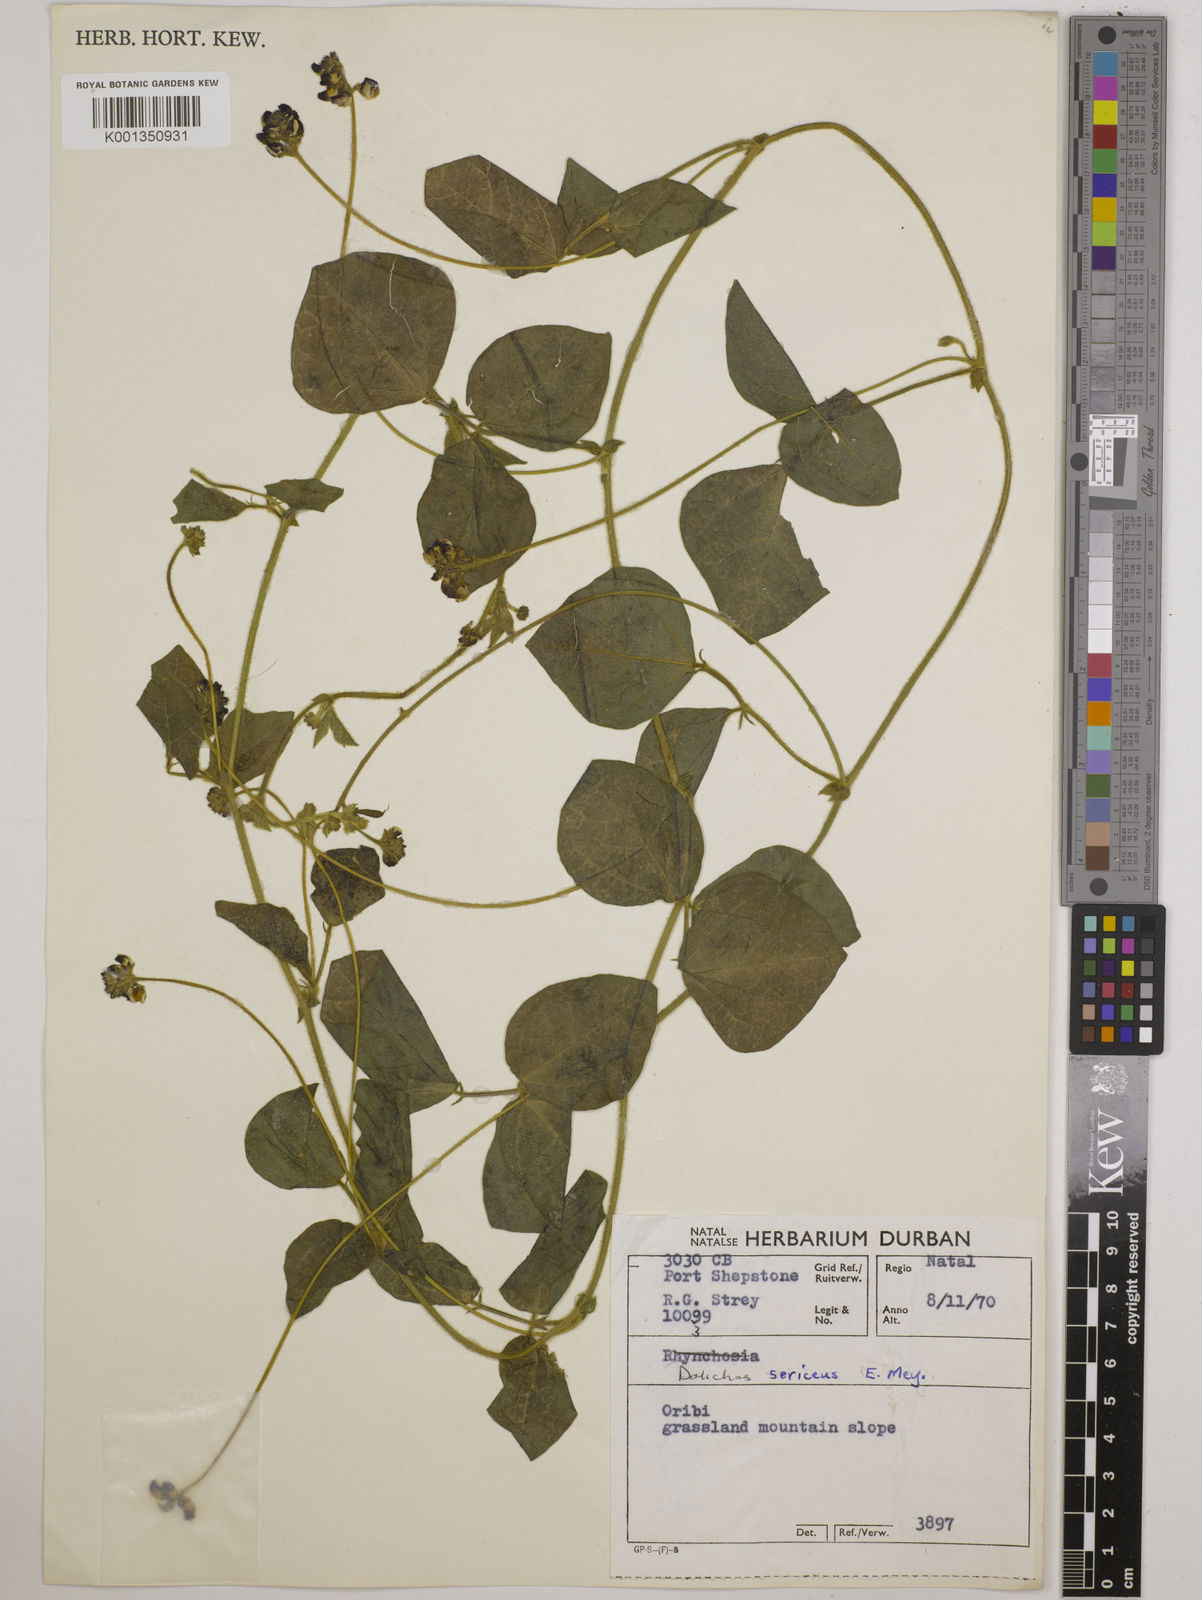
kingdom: Plantae
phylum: Tracheophyta
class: Magnoliopsida
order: Fabales
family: Fabaceae
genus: Dolichos
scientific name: Dolichos sericeus
